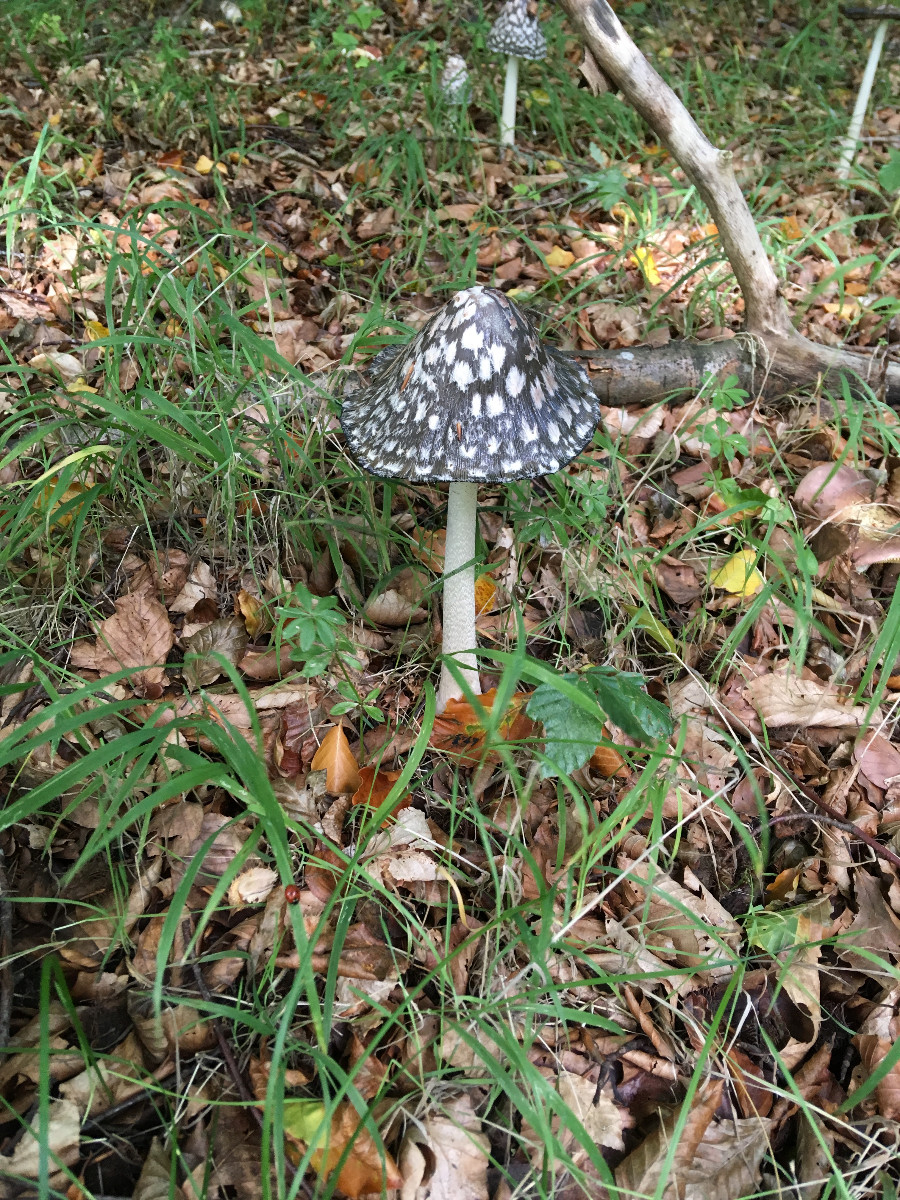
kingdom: Fungi
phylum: Basidiomycota
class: Agaricomycetes
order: Agaricales
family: Psathyrellaceae
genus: Coprinopsis
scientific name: Coprinopsis picacea
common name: skade-blækhat
